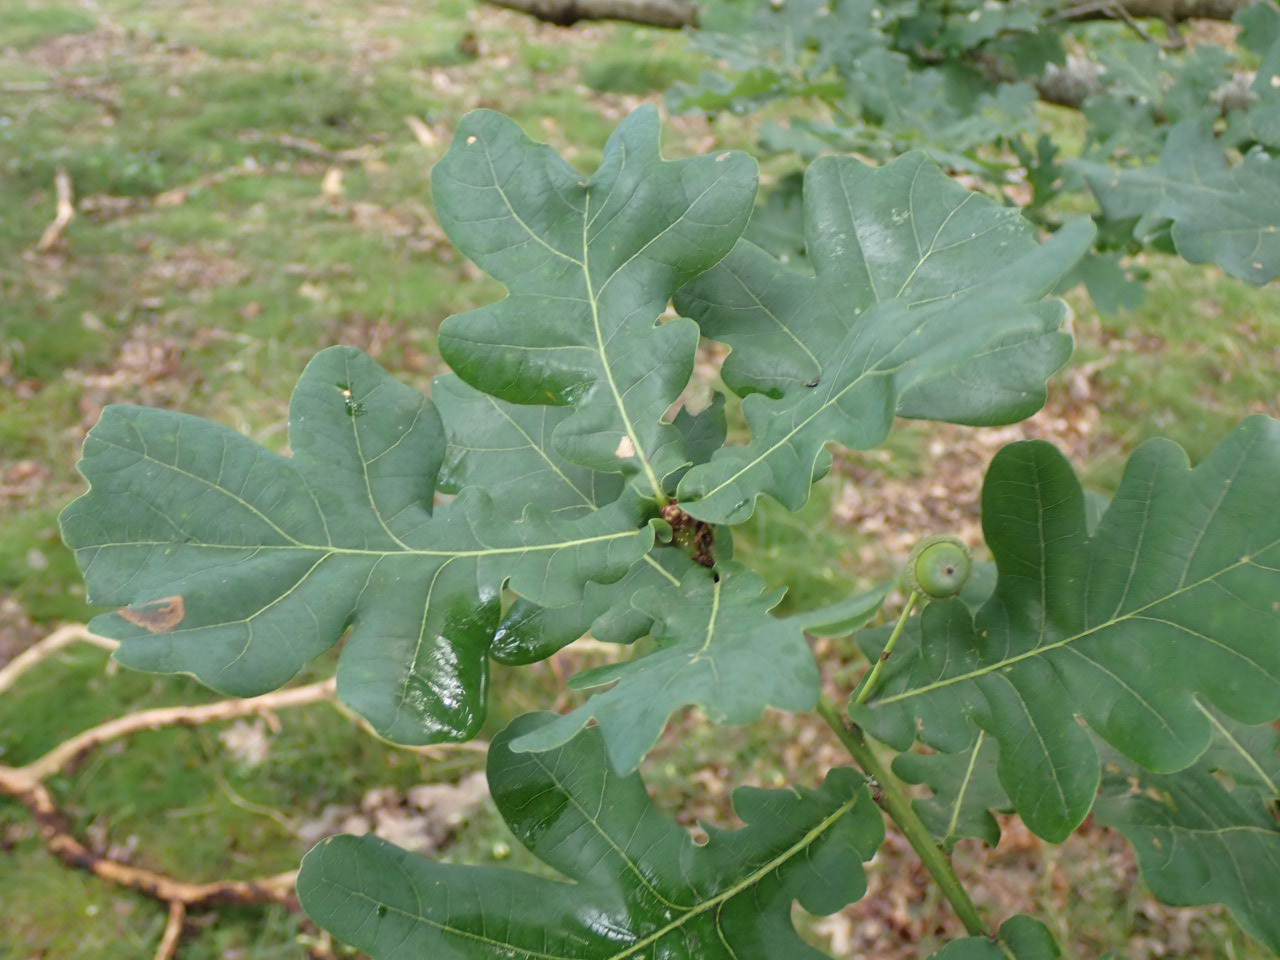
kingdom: Plantae
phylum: Tracheophyta
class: Magnoliopsida
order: Fagales
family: Fagaceae
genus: Quercus
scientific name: Quercus robur
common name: Stilk-eg/almindelig eg
